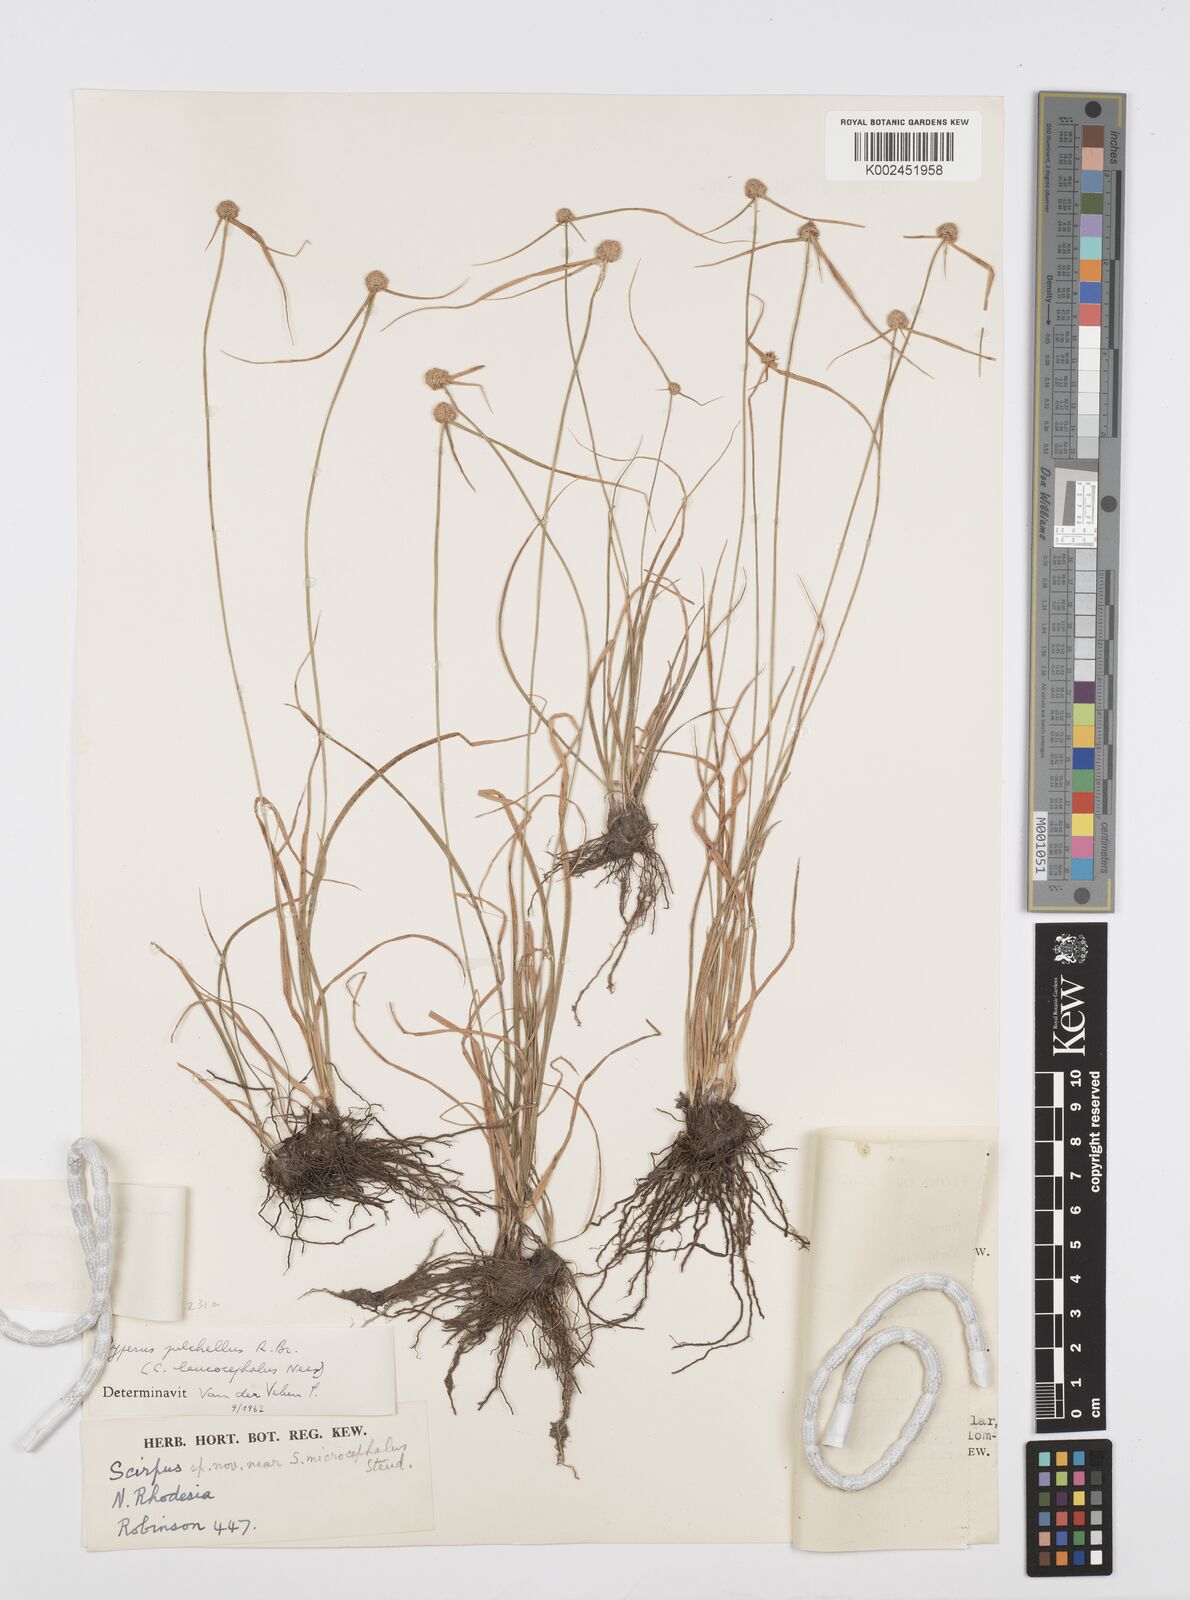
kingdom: Plantae
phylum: Tracheophyta
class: Liliopsida
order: Poales
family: Cyperaceae
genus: Cyperus
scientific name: Cyperus microcephalus
